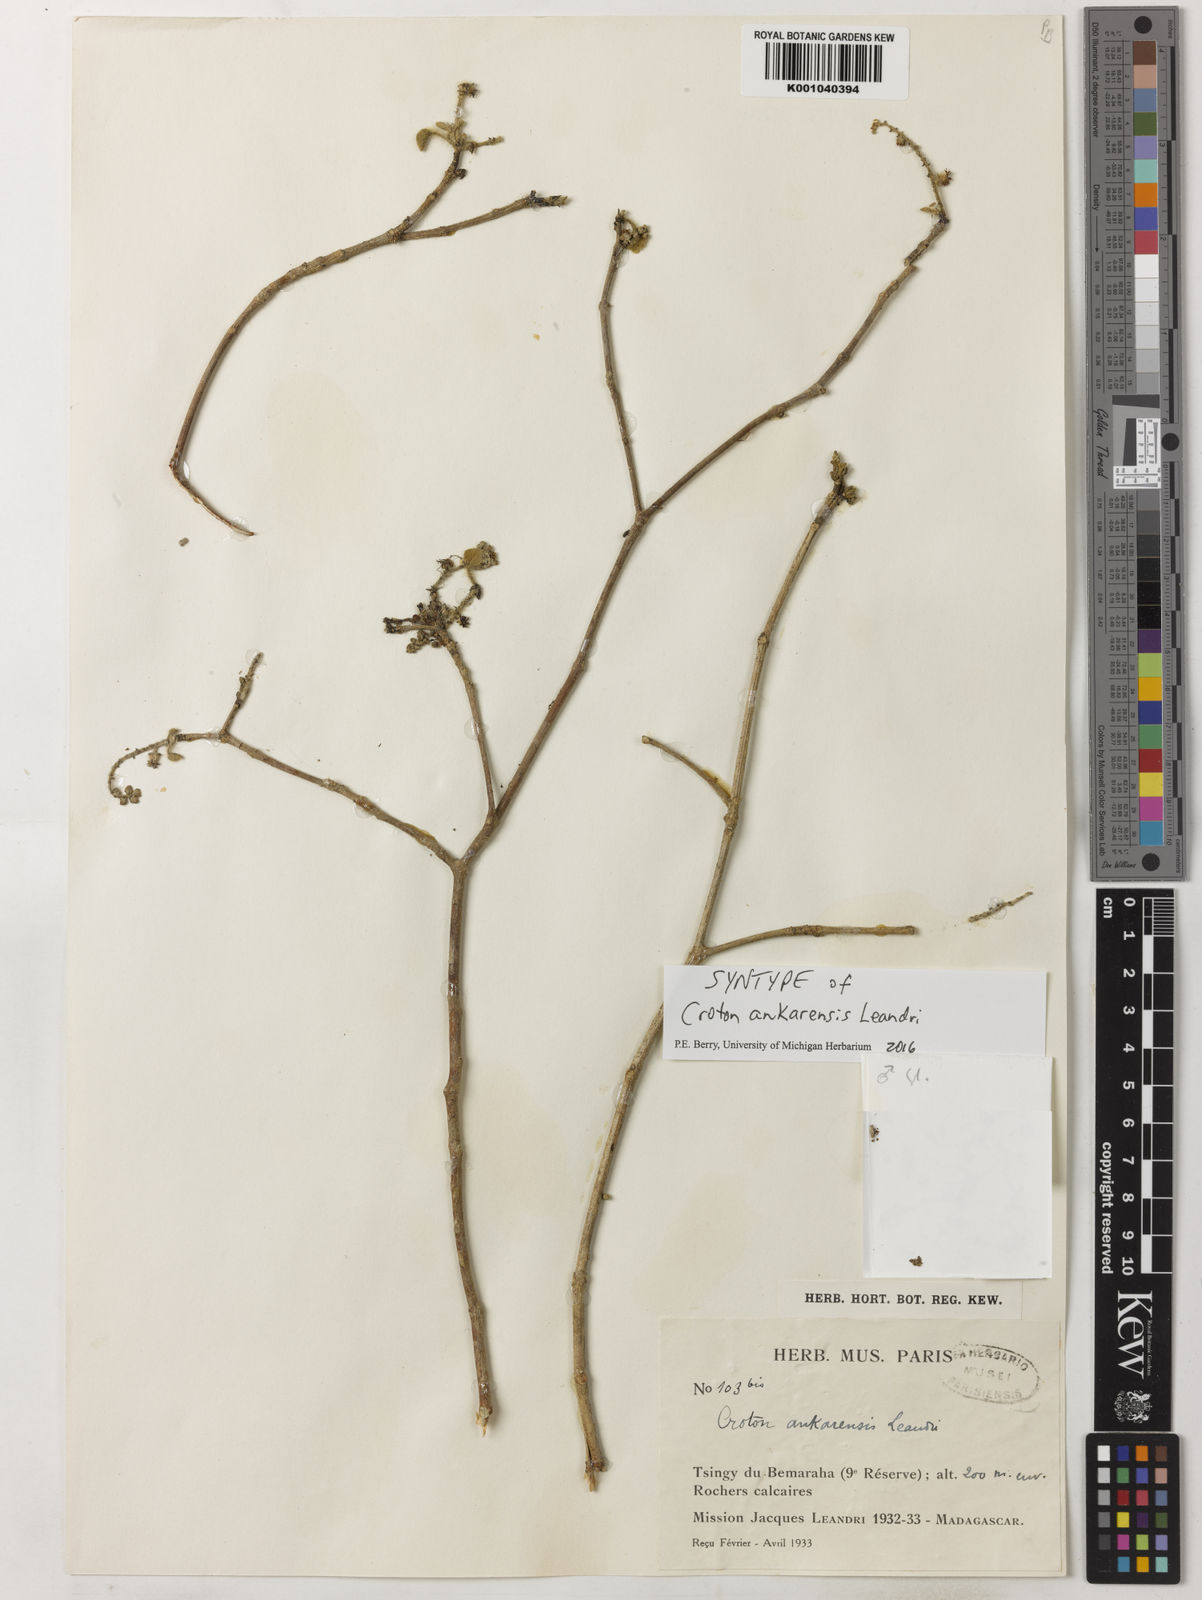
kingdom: Plantae
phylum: Tracheophyta
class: Magnoliopsida
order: Malpighiales
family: Euphorbiaceae
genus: Croton
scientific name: Croton ankarensis
